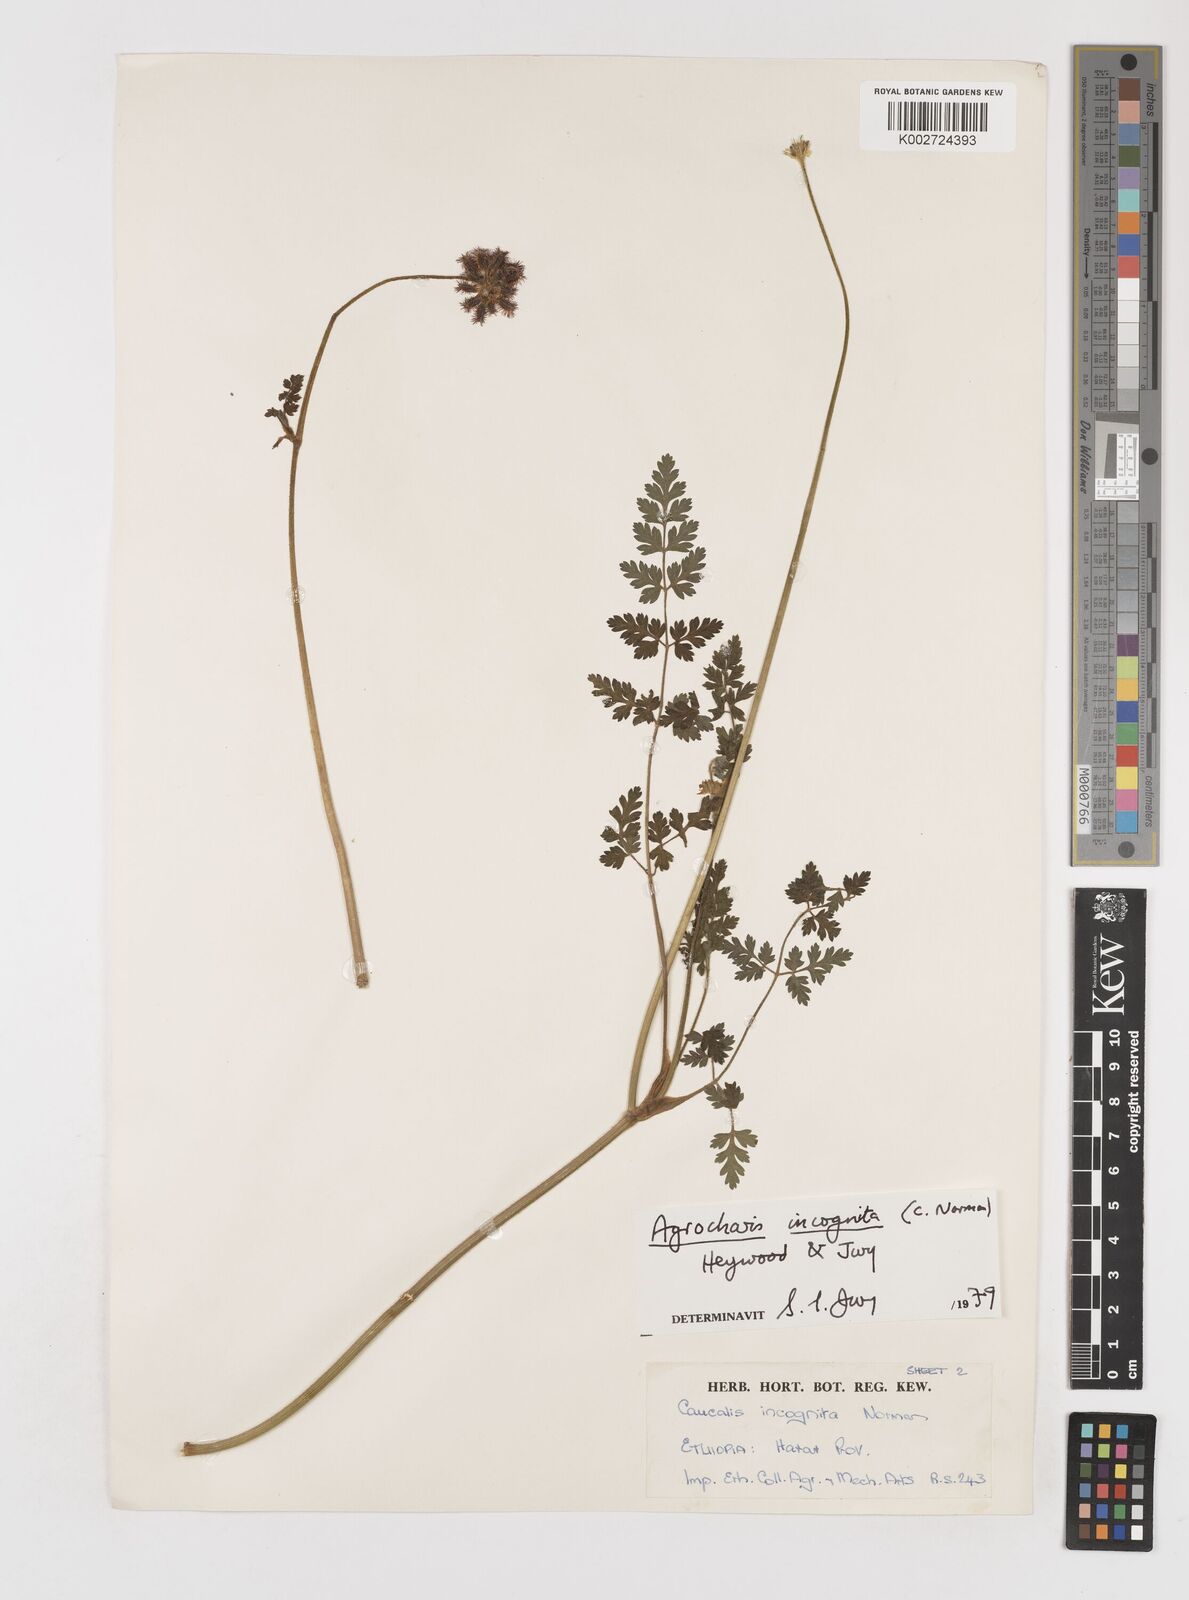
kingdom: Plantae
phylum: Tracheophyta
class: Magnoliopsida
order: Apiales
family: Apiaceae
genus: Daucus
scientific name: Daucus incognitus
